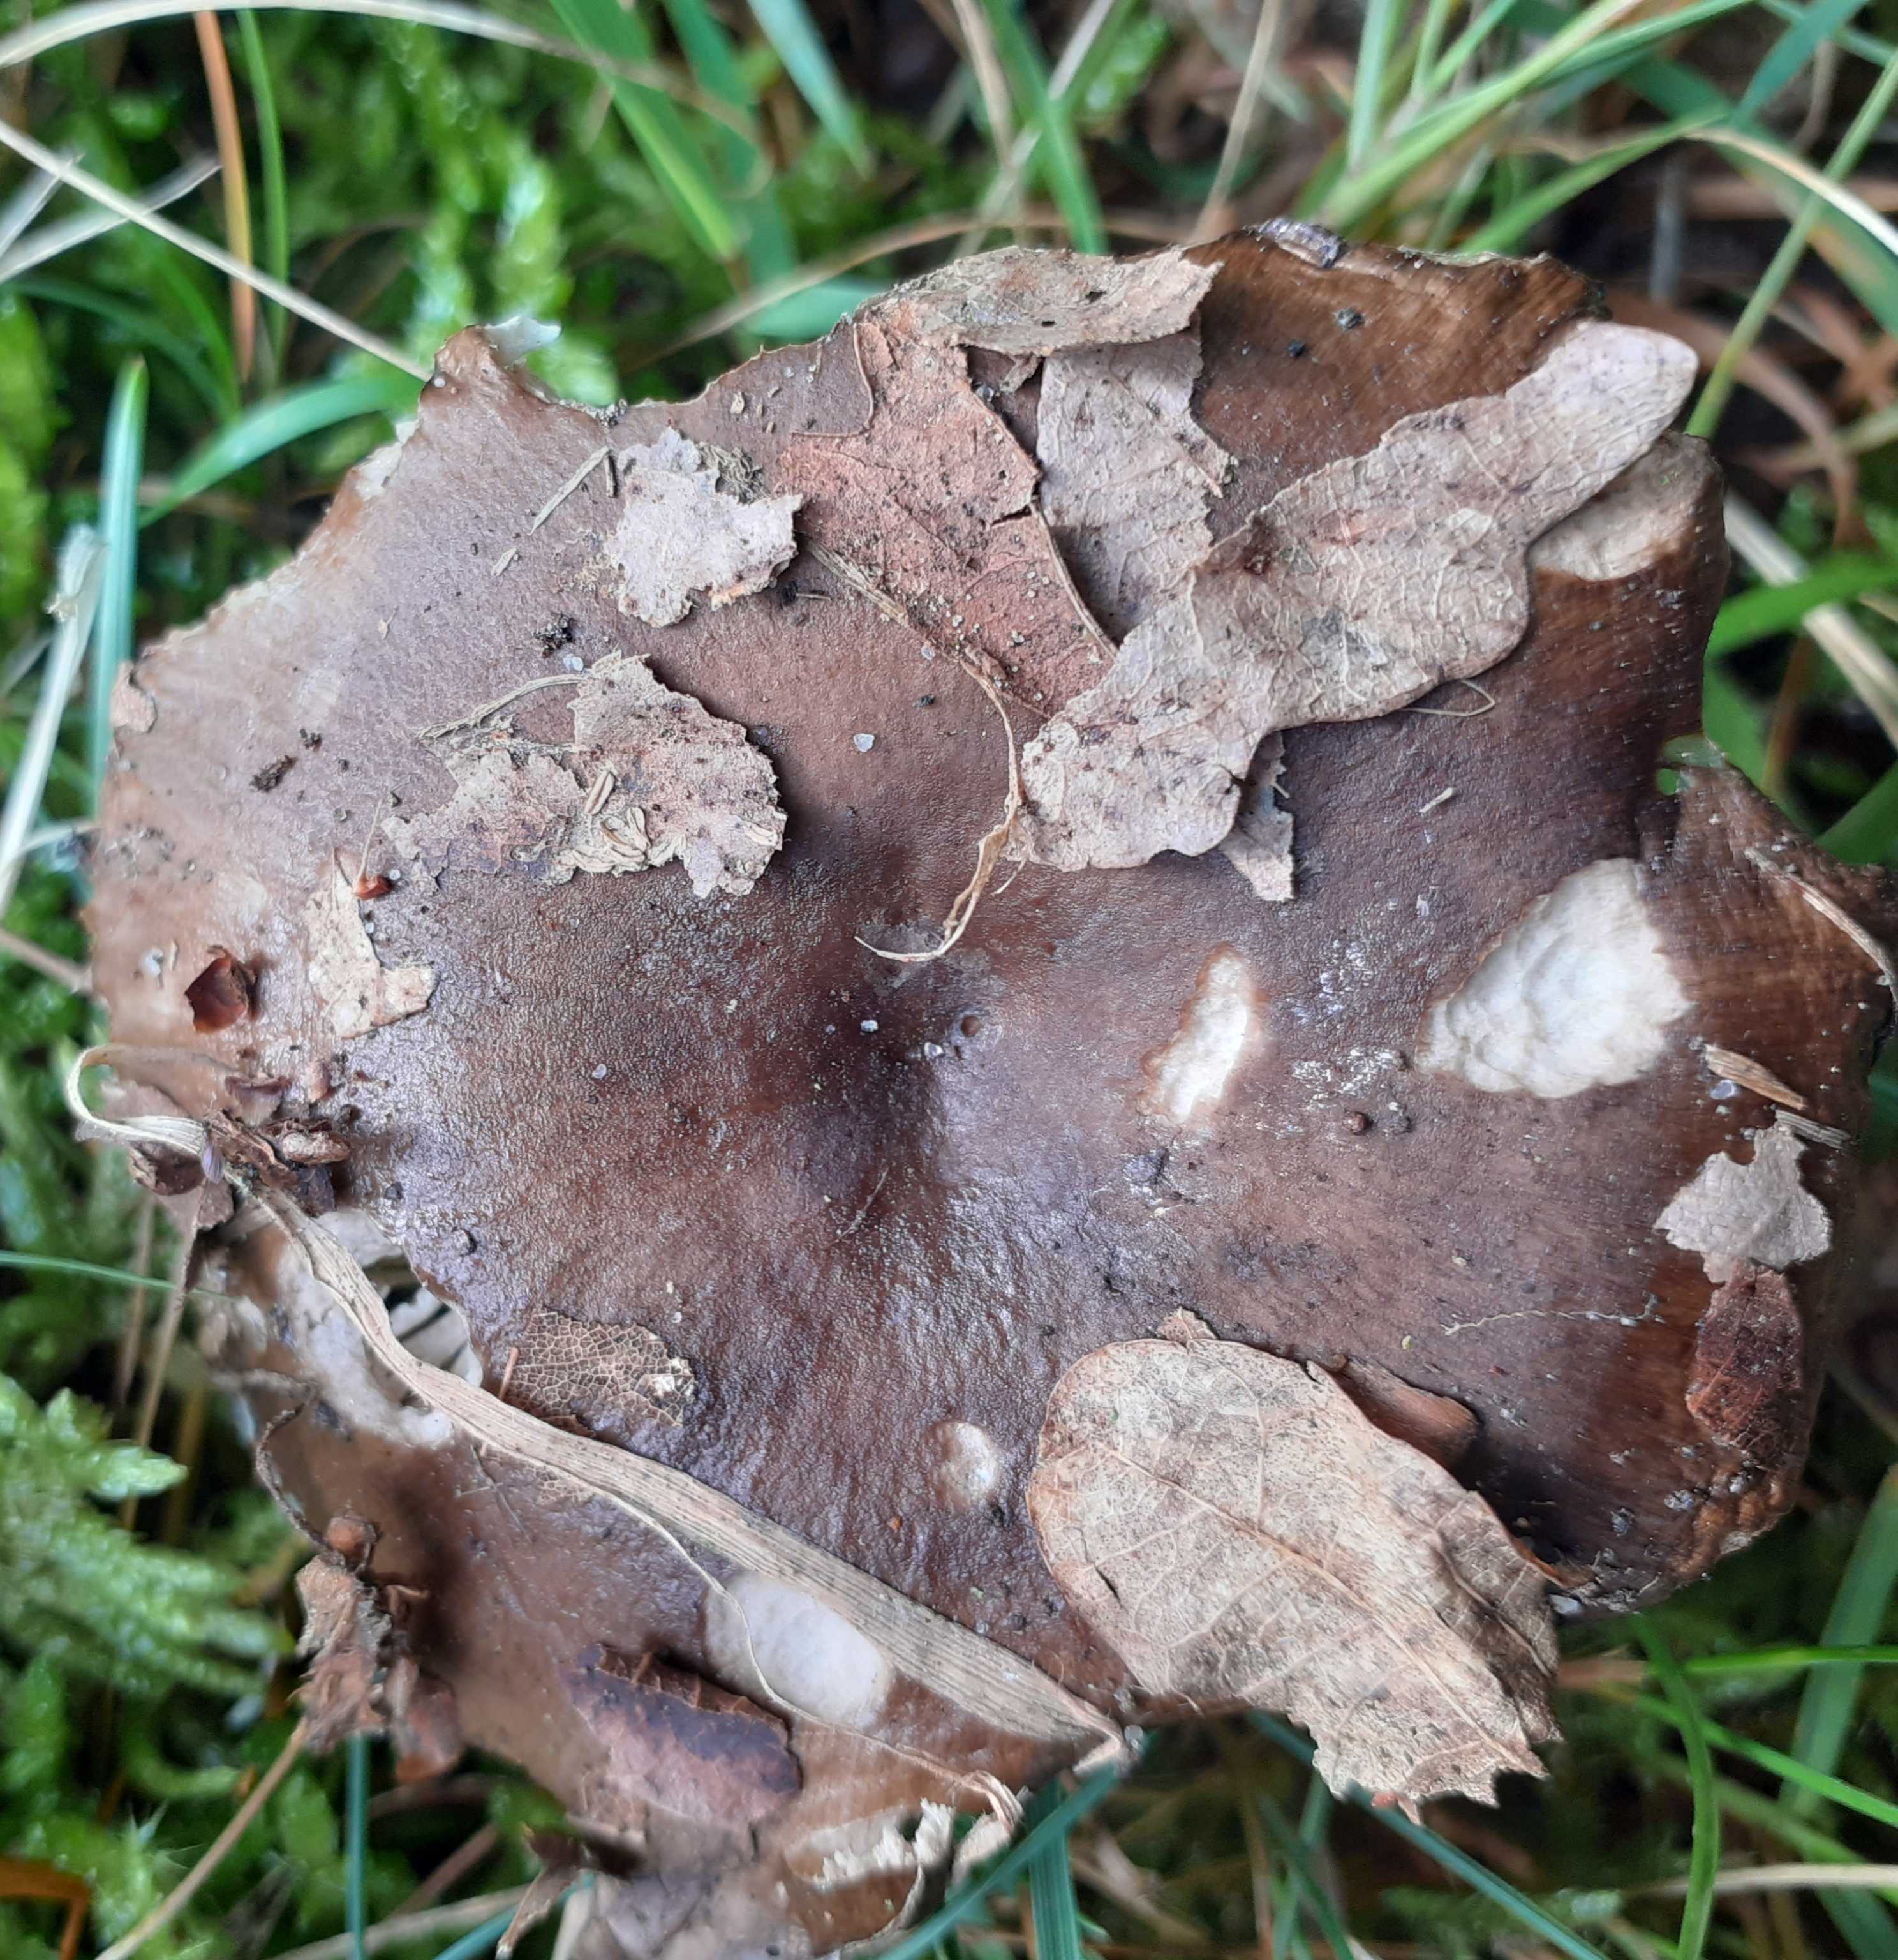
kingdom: Fungi
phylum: Basidiomycota
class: Agaricomycetes
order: Russulales
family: Russulaceae
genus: Russula
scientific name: Russula amoenolens
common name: skarp kam-skørhat
